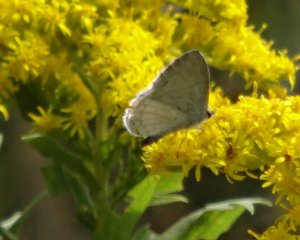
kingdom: Animalia
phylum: Arthropoda
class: Insecta
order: Lepidoptera
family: Lycaenidae
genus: Elkalyce
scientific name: Elkalyce comyntas
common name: Eastern Tailed-Blue
